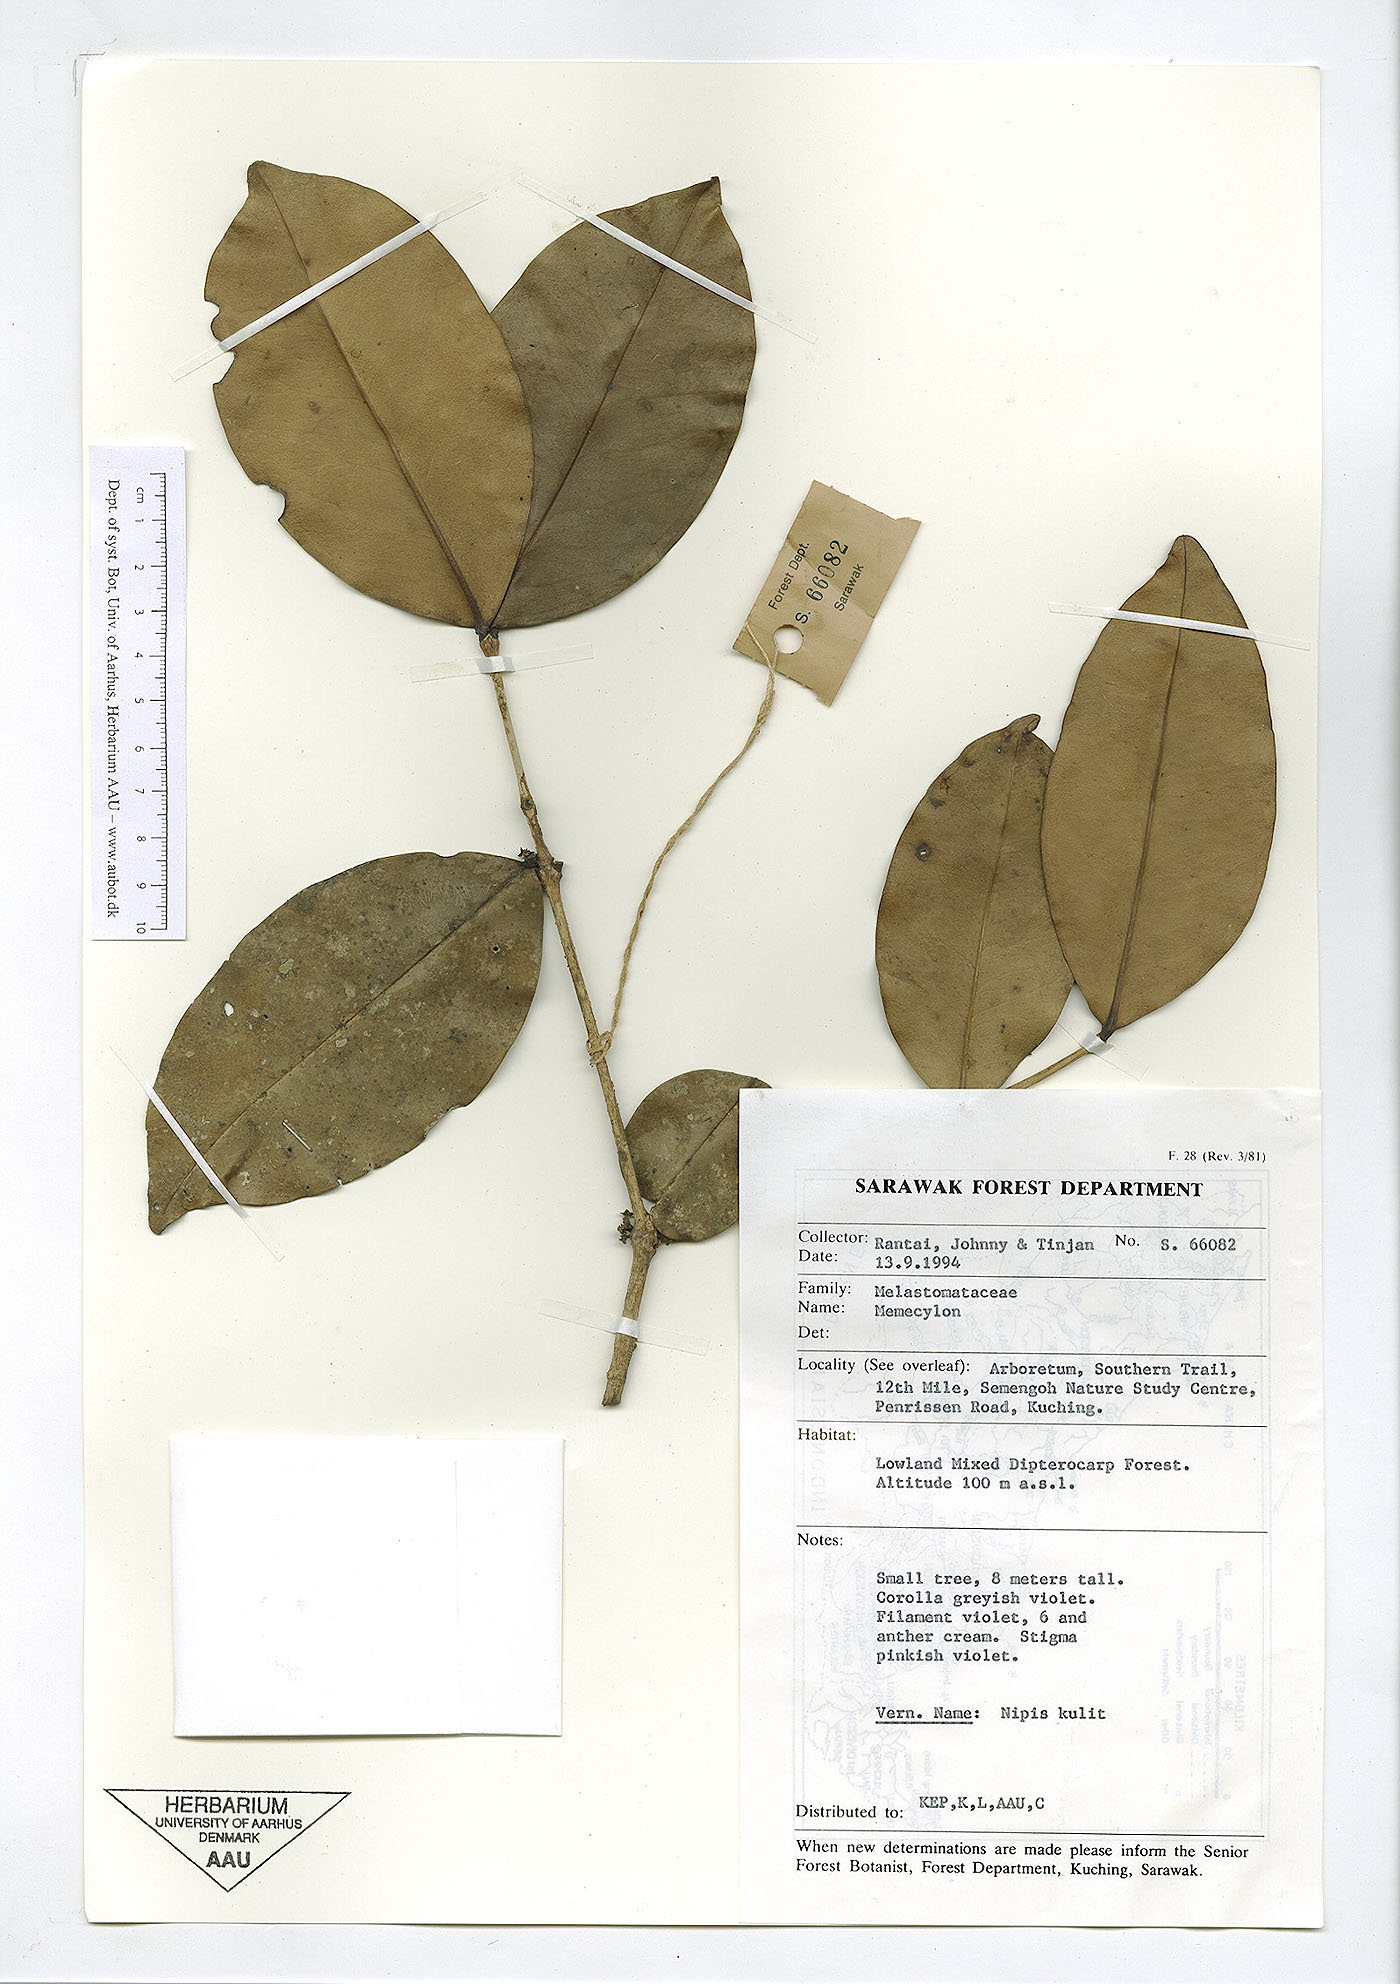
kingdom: Plantae
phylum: Tracheophyta
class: Magnoliopsida
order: Myrtales
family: Melastomataceae
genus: Memecylon
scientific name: Memecylon
